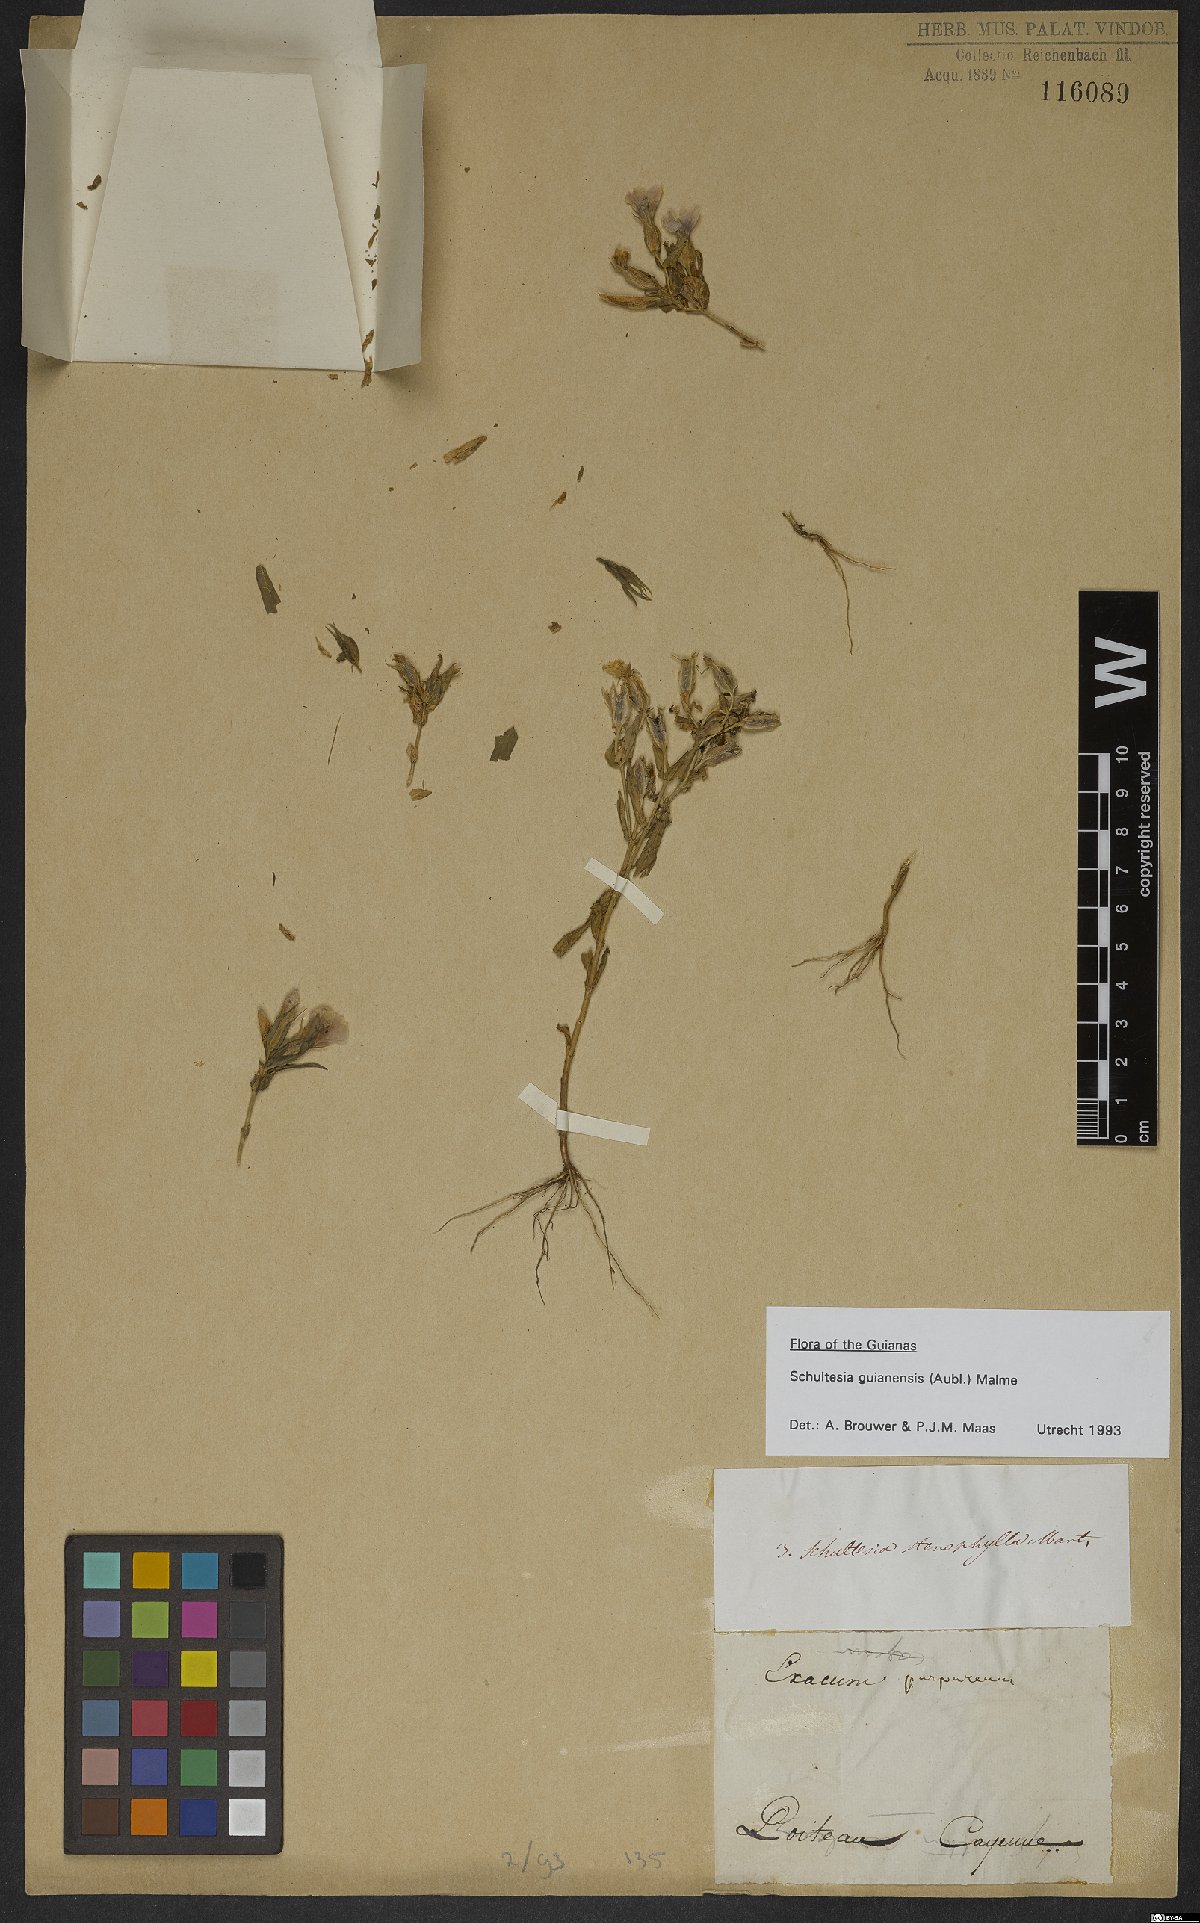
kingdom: Plantae
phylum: Tracheophyta
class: Magnoliopsida
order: Gentianales
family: Gentianaceae
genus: Schultesia
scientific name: Schultesia guianensis
